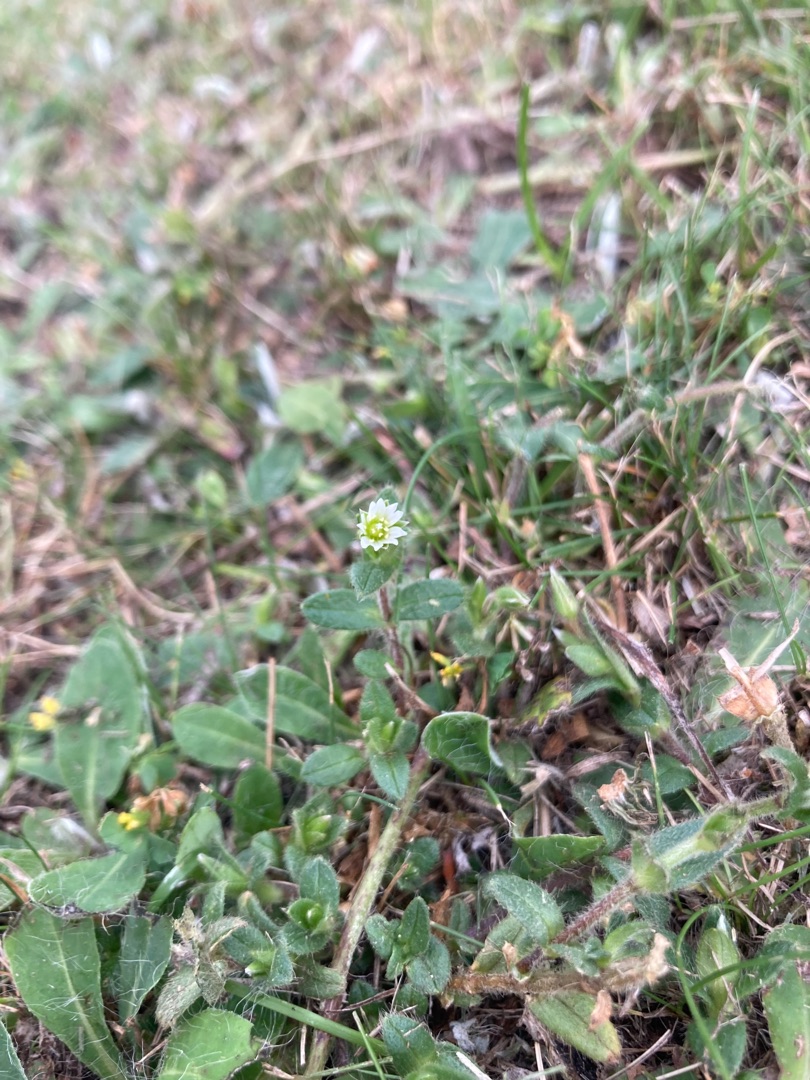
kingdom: Plantae
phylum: Tracheophyta
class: Magnoliopsida
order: Caryophyllales
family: Caryophyllaceae
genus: Cerastium
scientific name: Cerastium fontanum
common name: Almindelig hønsetarm
